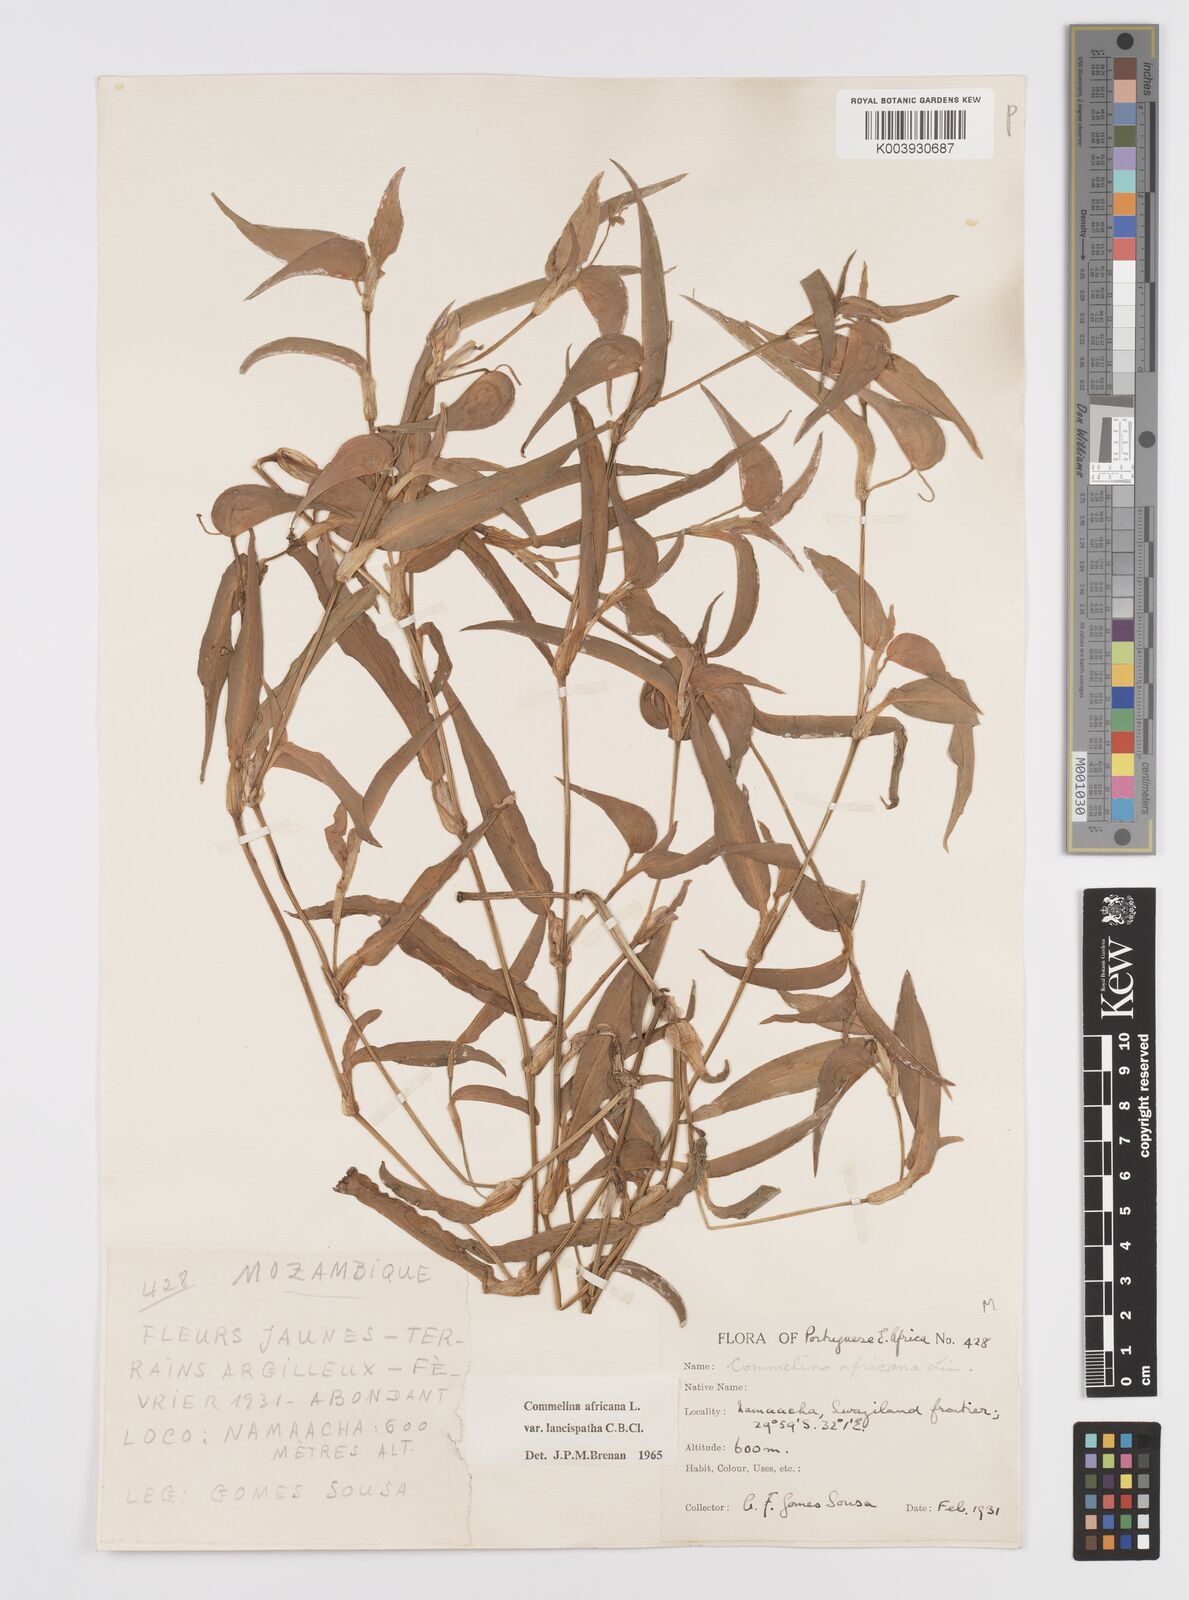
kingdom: Plantae
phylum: Tracheophyta
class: Liliopsida
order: Commelinales
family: Commelinaceae
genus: Commelina
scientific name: Commelina africana
